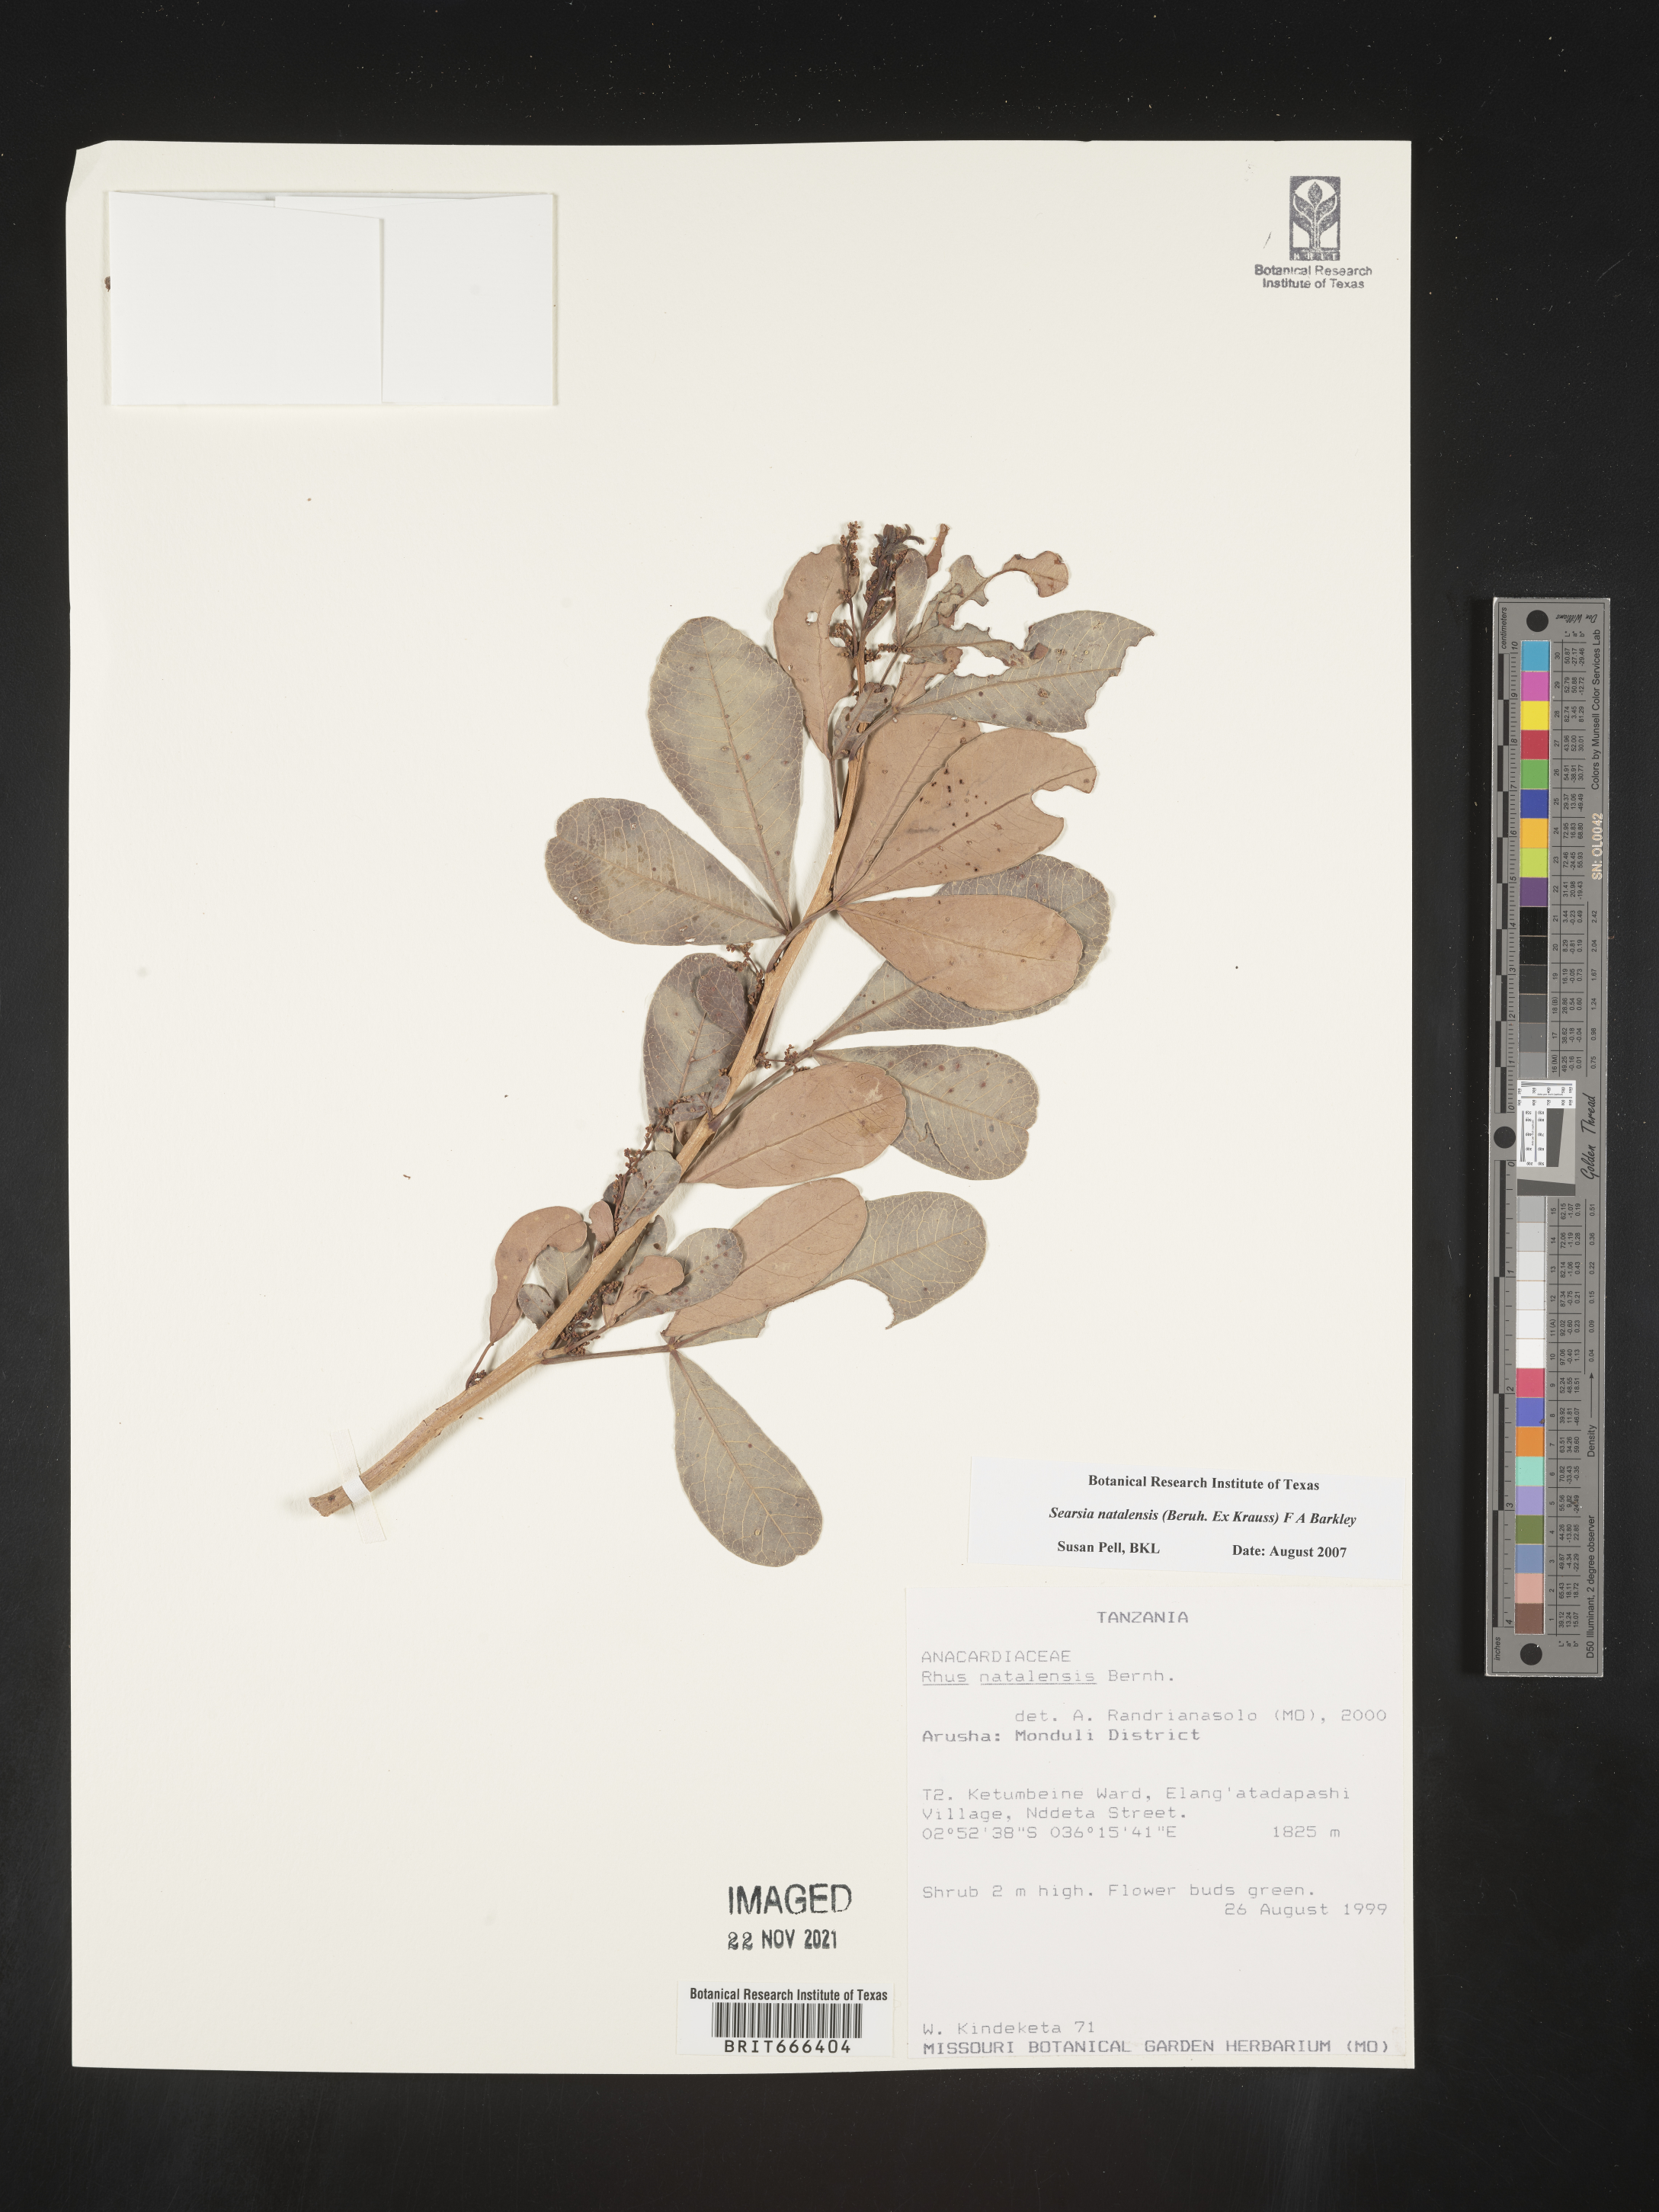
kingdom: Plantae
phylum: Tracheophyta
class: Magnoliopsida
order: Sapindales
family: Anacardiaceae
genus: Searsia
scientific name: Searsia natalensis
